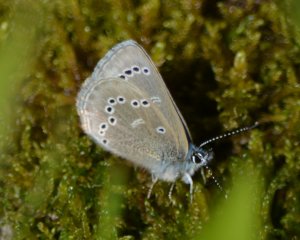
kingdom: Animalia
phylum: Arthropoda
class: Insecta
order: Lepidoptera
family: Lycaenidae
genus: Glaucopsyche
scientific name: Glaucopsyche lygdamus
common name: Silvery Blue
